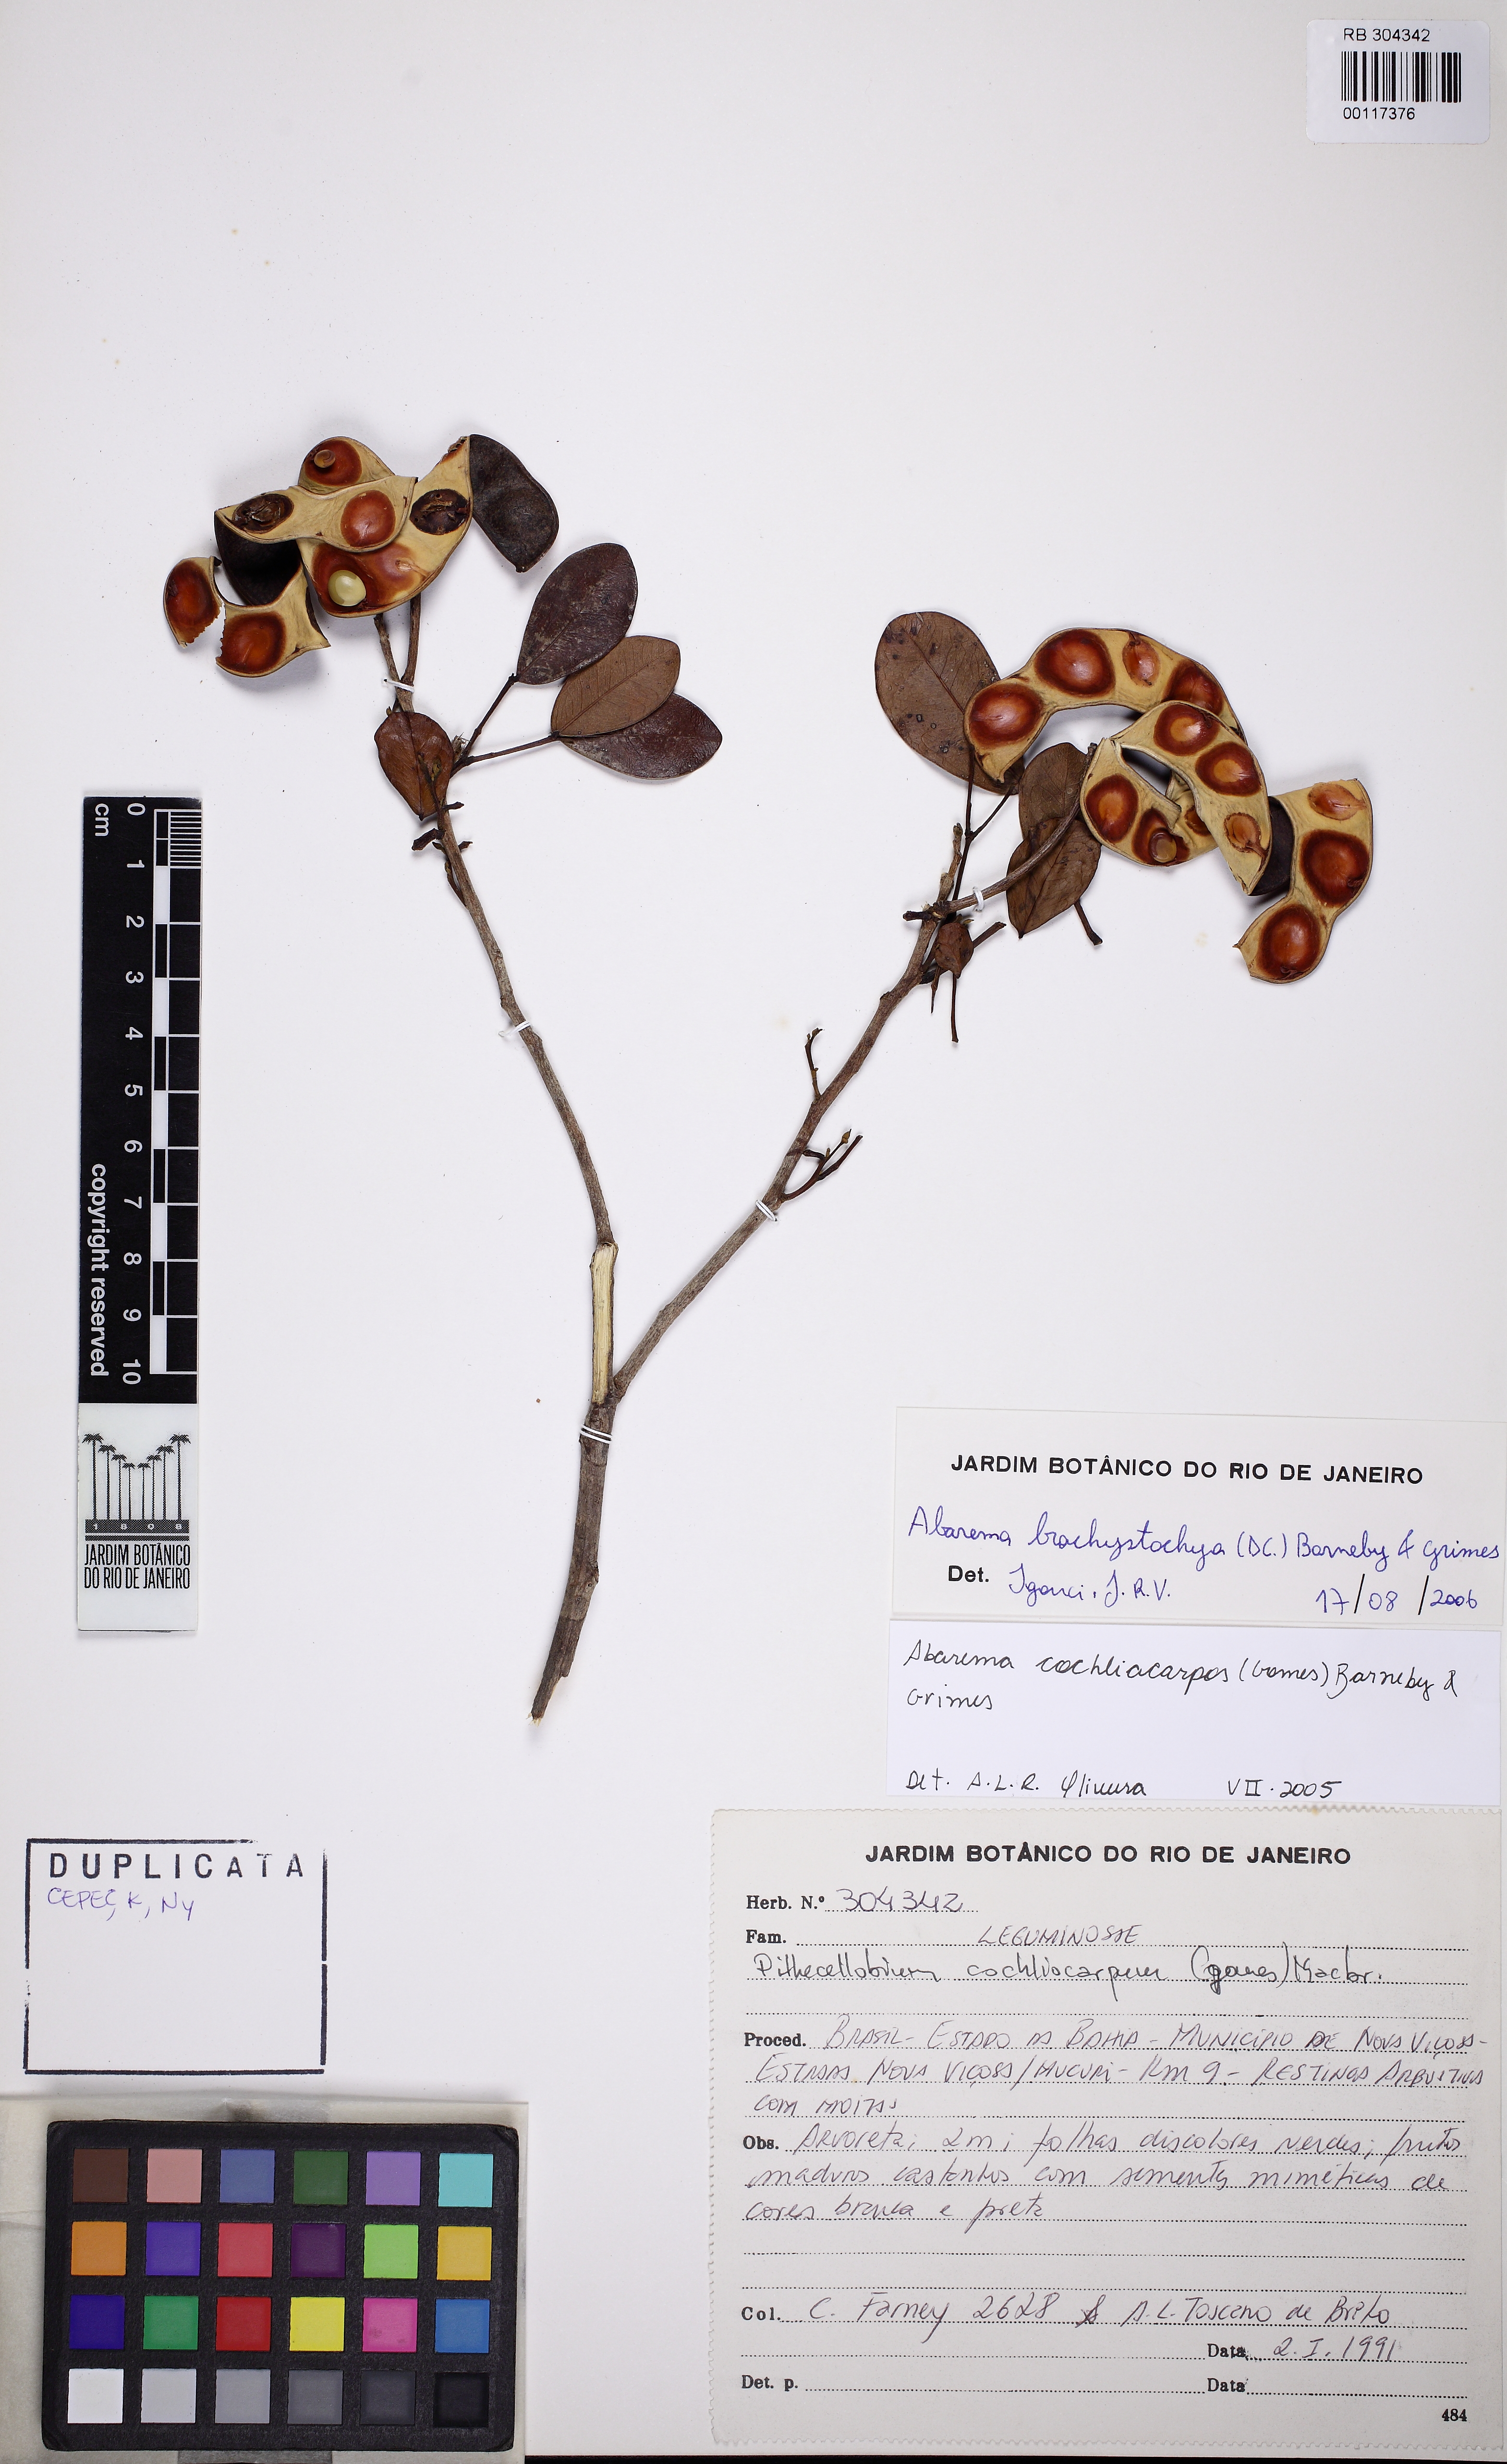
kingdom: Plantae
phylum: Tracheophyta
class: Magnoliopsida
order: Fabales
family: Fabaceae
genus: Jupunba
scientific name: Jupunba brachystachya
